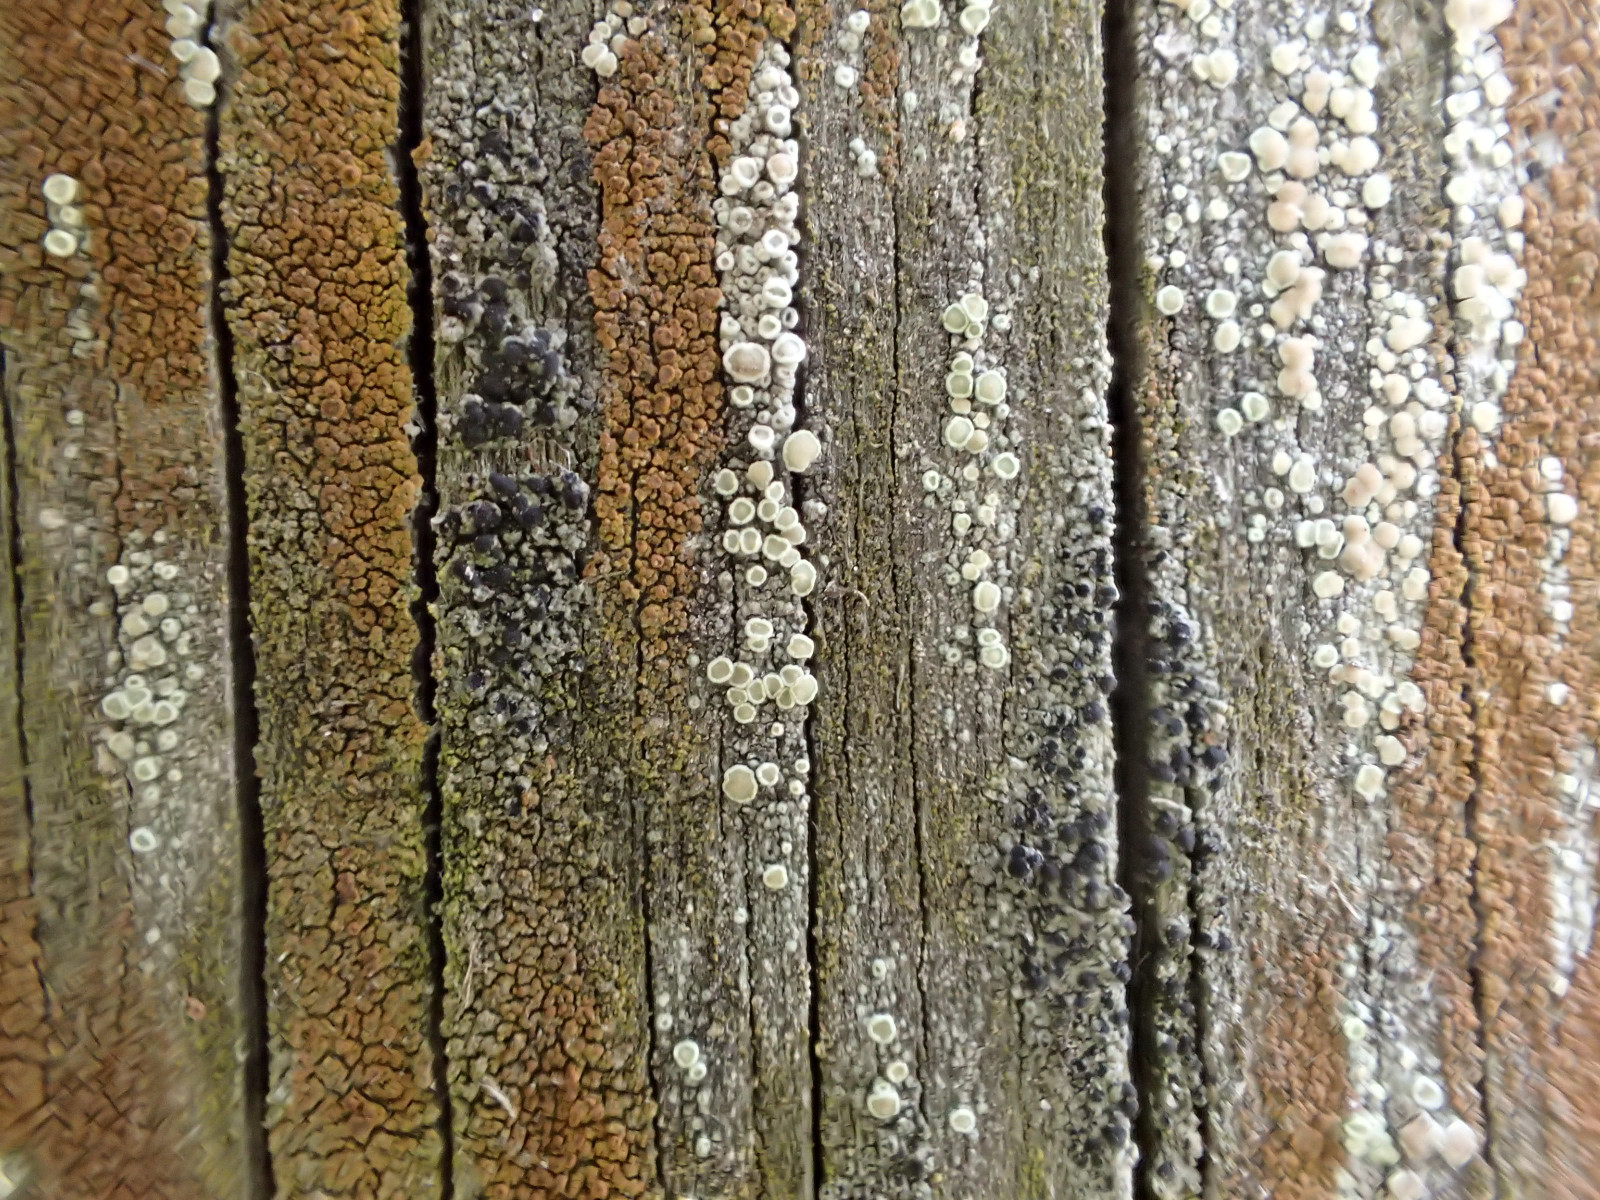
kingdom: Fungi
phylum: Ascomycota
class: Lecanoromycetes
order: Caliciales
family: Caliciaceae
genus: Amandinea
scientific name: Amandinea punctata
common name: liden sortskivelav
